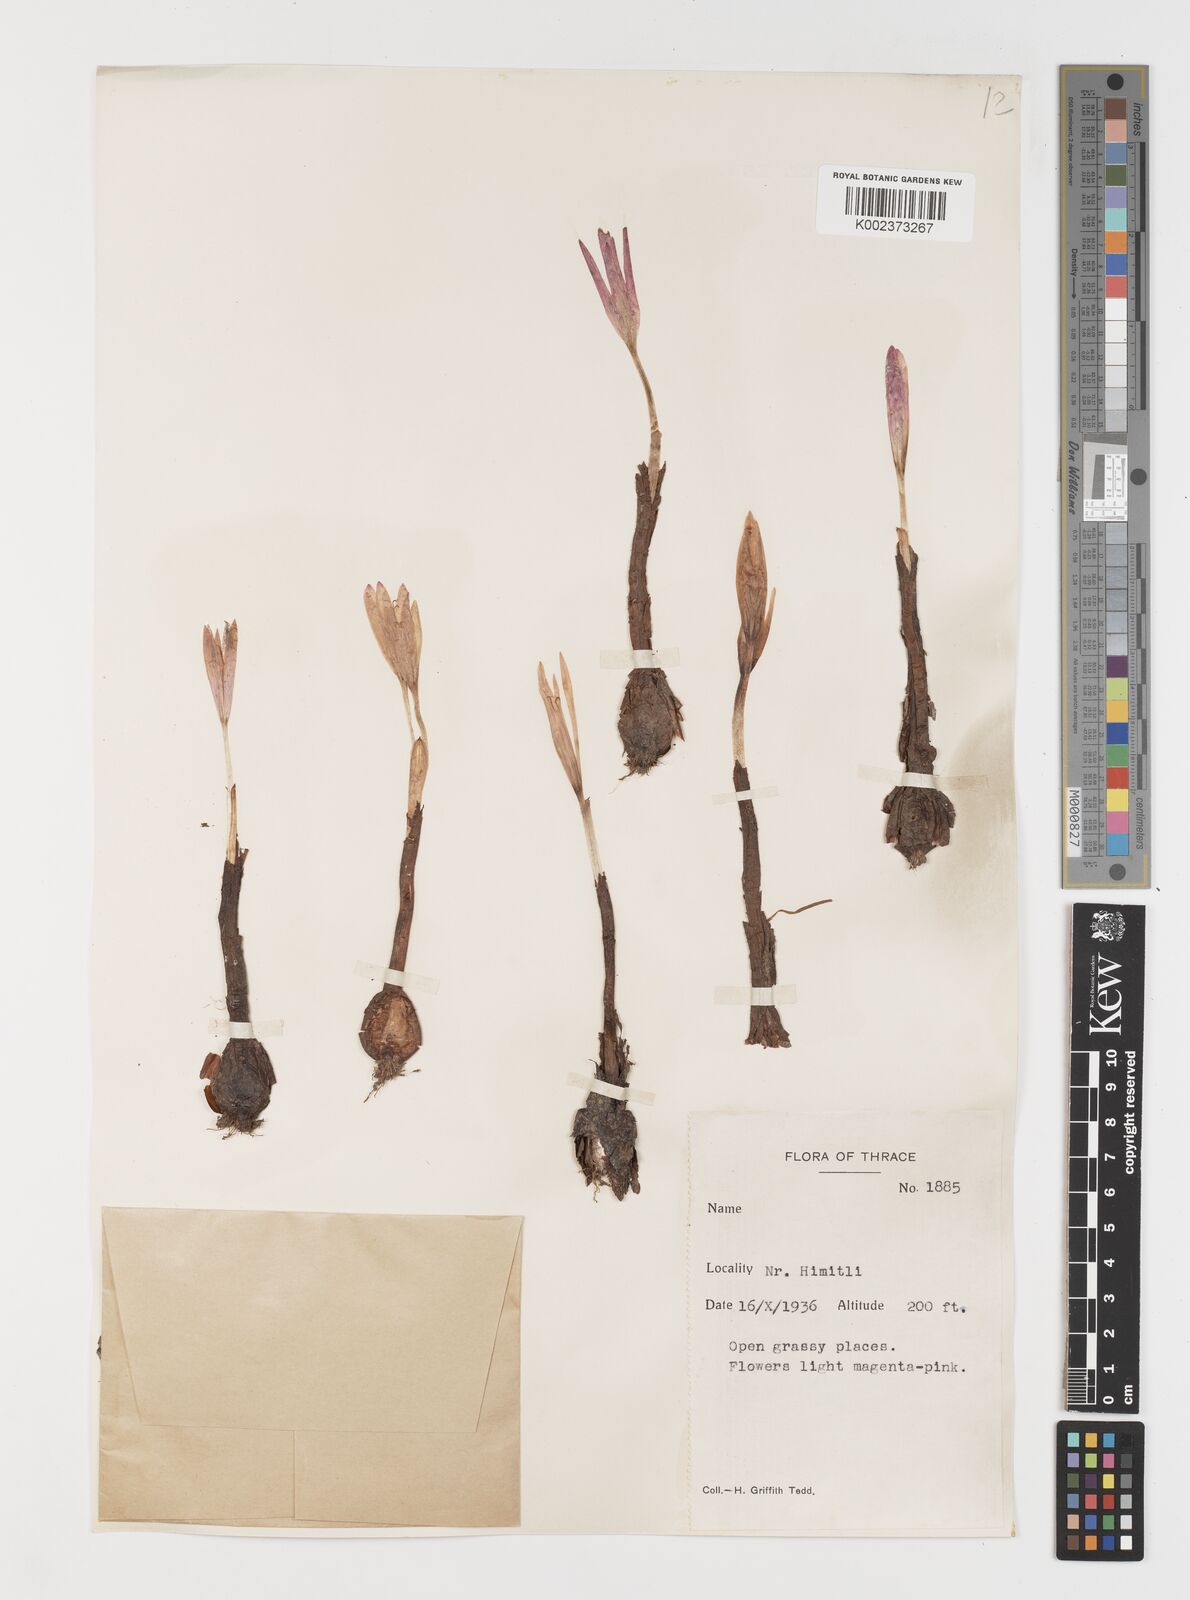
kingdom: Plantae
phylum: Tracheophyta
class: Liliopsida
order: Liliales
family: Colchicaceae
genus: Colchicum
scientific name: Colchicum turcicum
